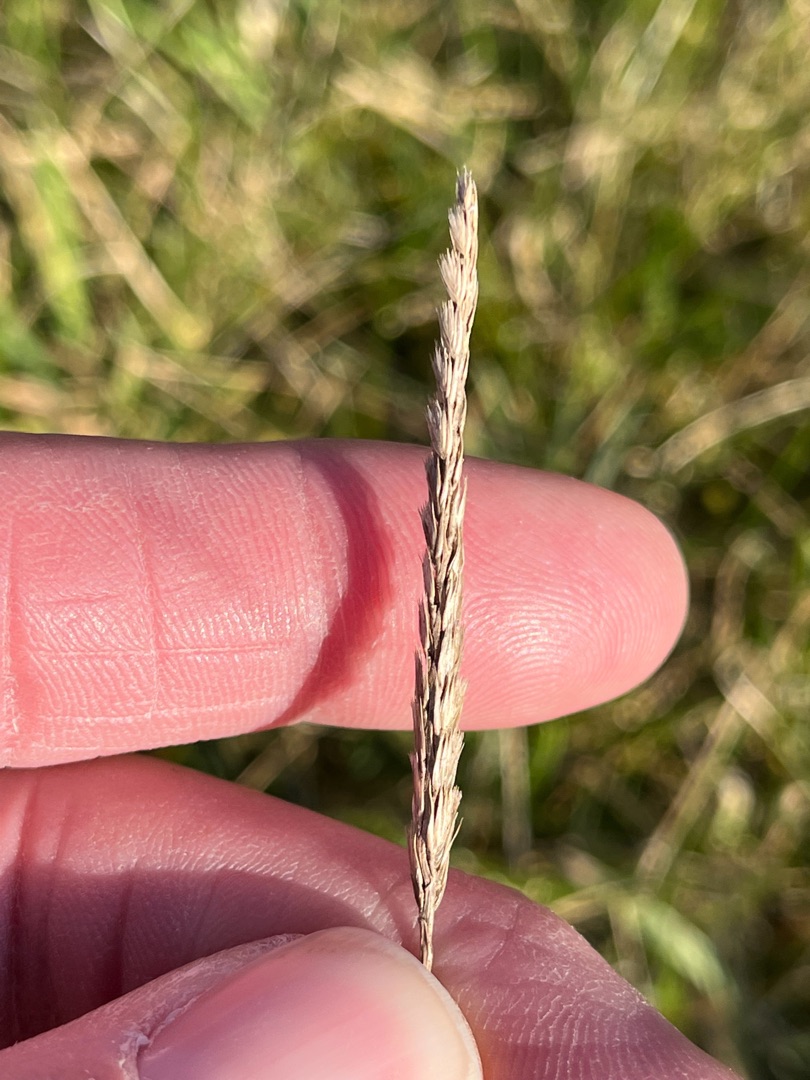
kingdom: Plantae
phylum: Tracheophyta
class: Liliopsida
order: Poales
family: Poaceae
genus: Cynosurus
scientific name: Cynosurus cristatus
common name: Kamgræs
